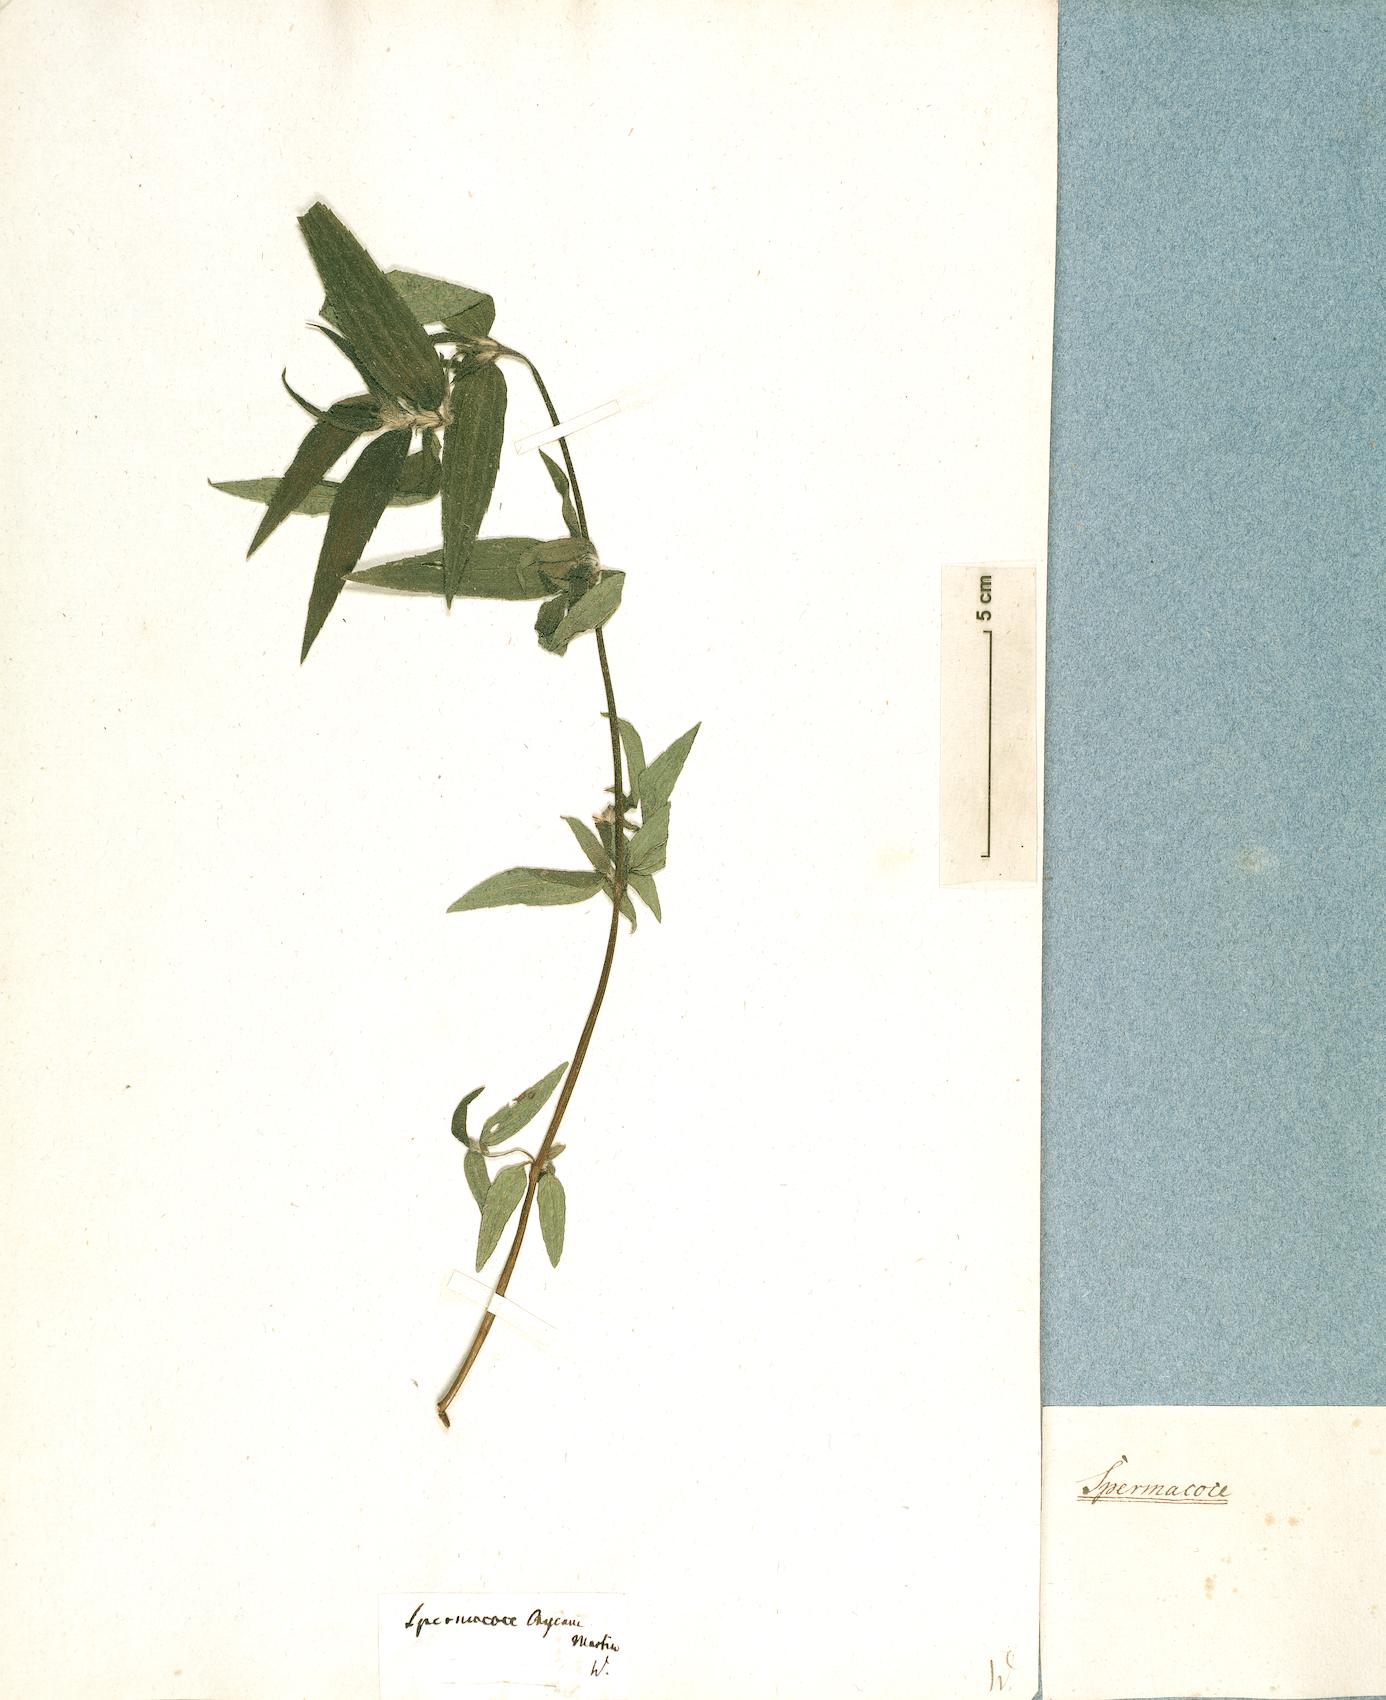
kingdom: Plantae
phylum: Tracheophyta
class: Magnoliopsida
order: Gentianales
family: Rubiaceae
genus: Spermacoce
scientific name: Spermacoce
